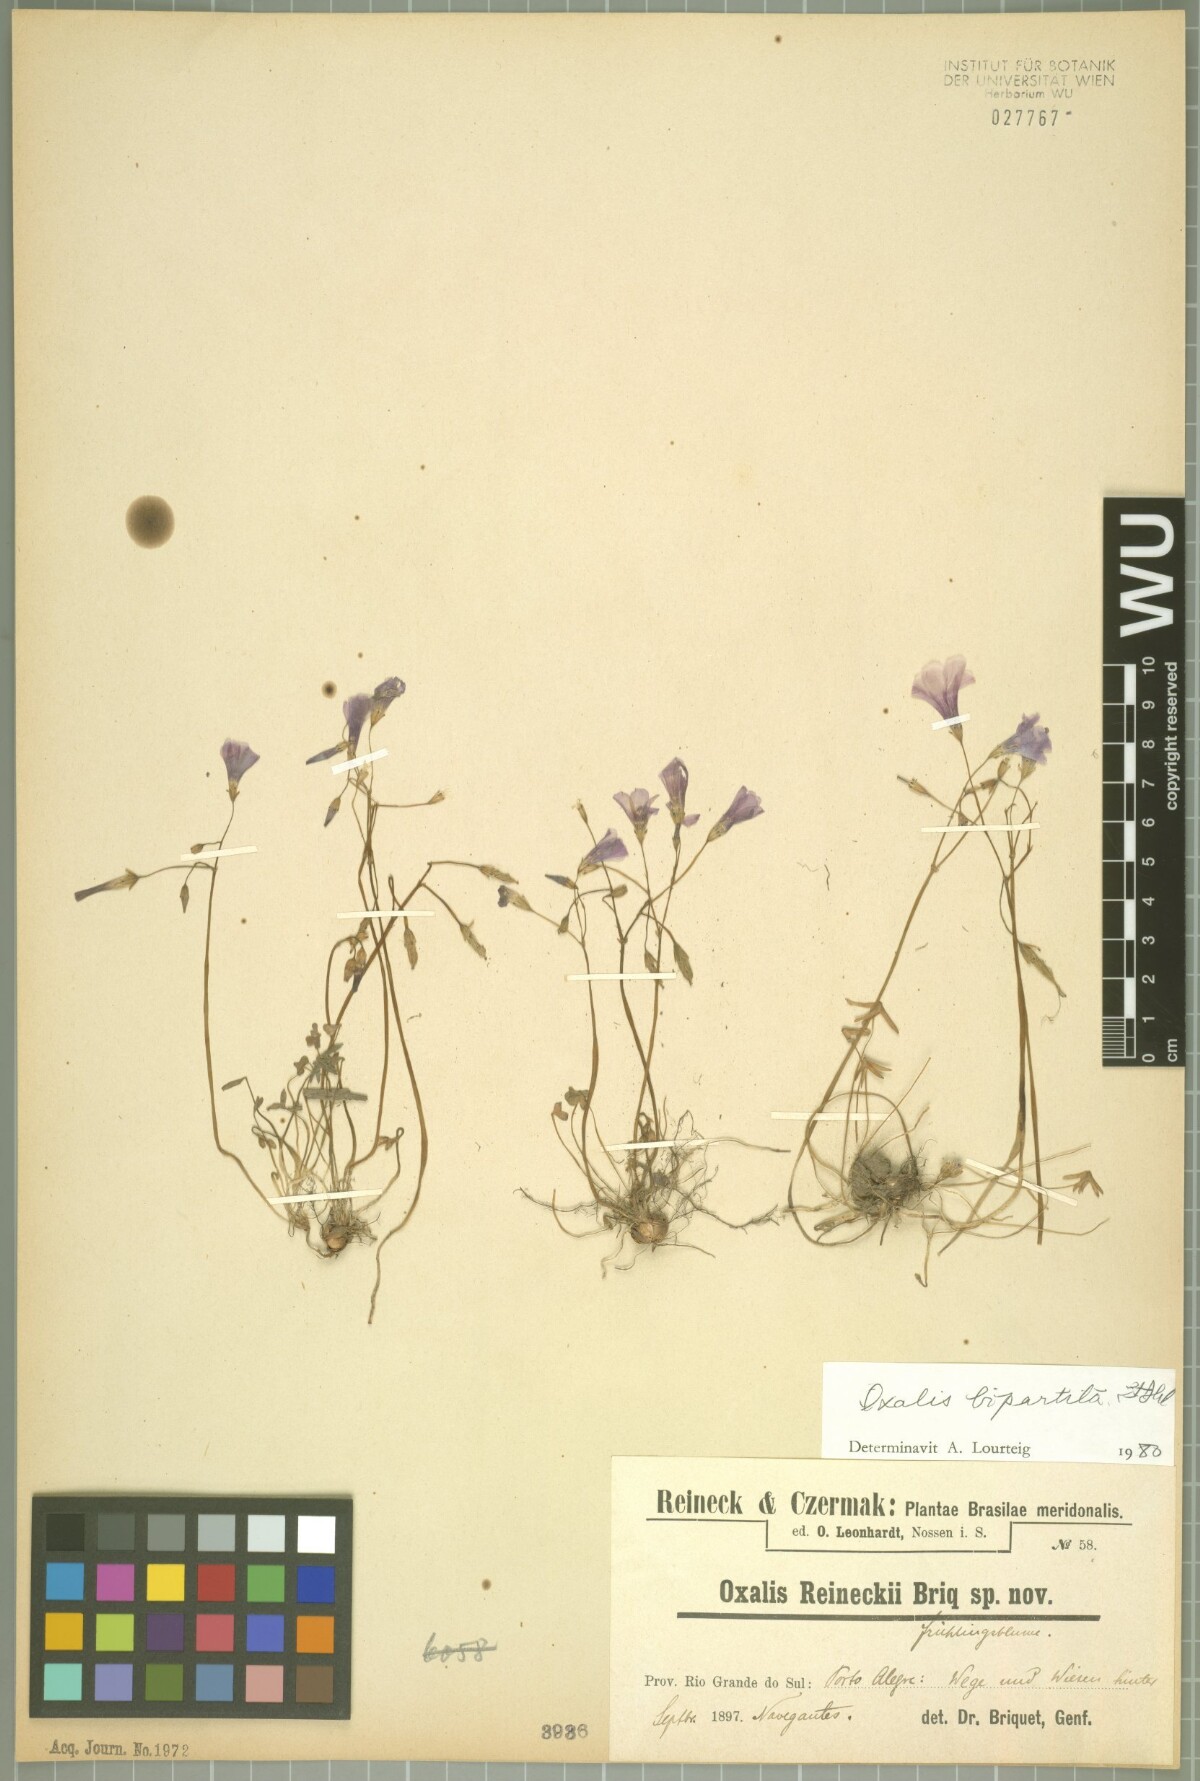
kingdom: Plantae
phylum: Tracheophyta
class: Magnoliopsida
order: Oxalidales
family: Oxalidaceae
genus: Oxalis
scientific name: Oxalis bipartita
